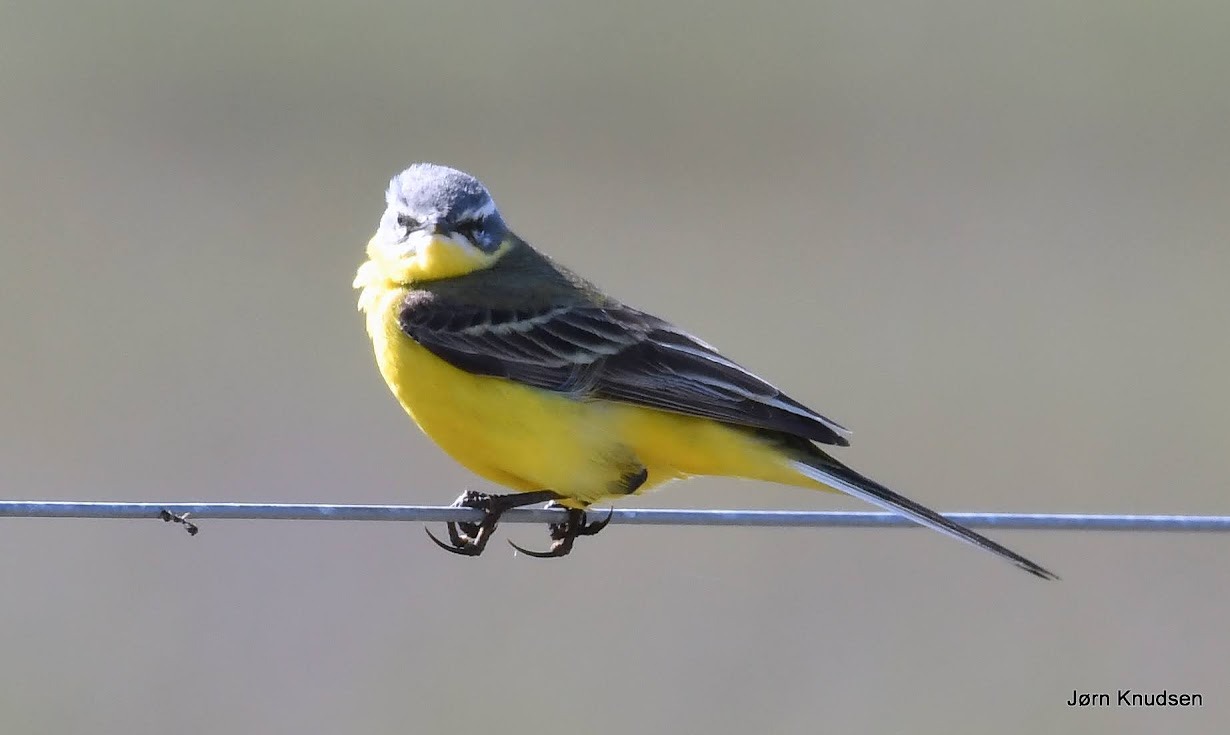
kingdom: Animalia
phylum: Chordata
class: Aves
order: Passeriformes
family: Motacillidae
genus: Motacilla
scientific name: Motacilla flava
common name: Gul vipstjert
